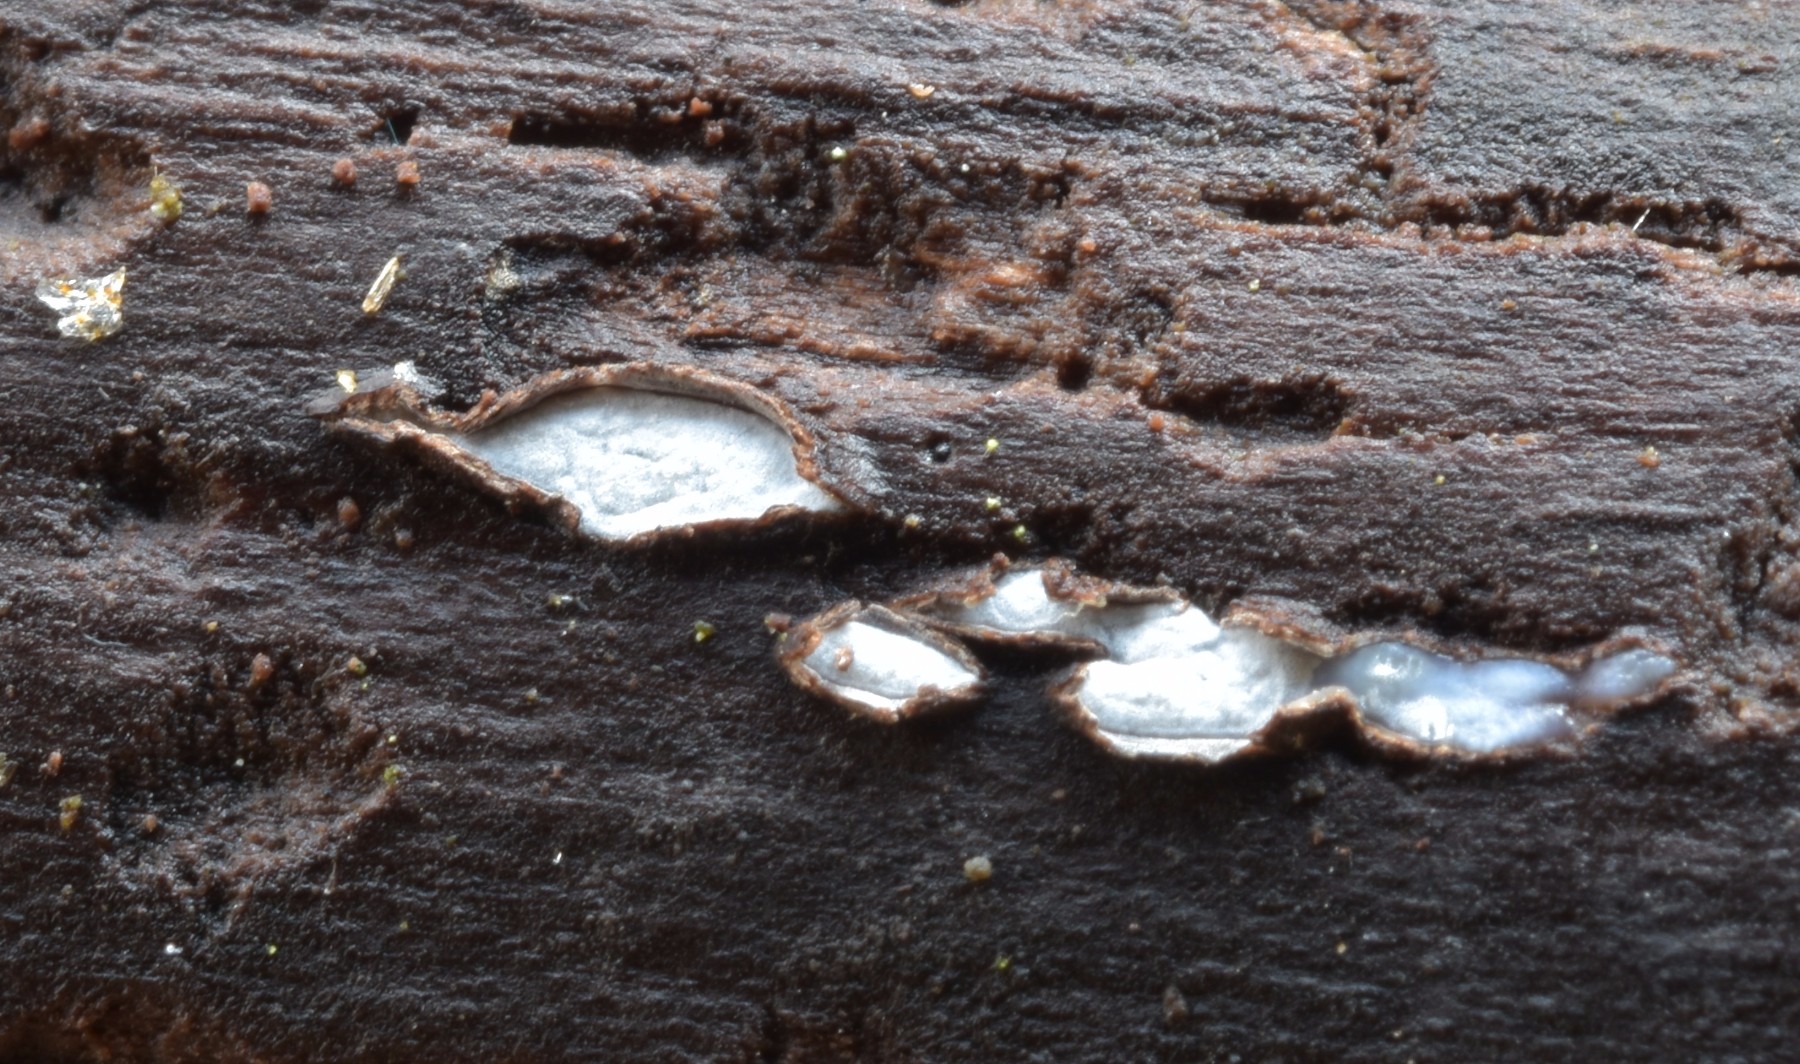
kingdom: Fungi
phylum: Ascomycota
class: Leotiomycetes
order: Chaetomellales
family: Marthamycetaceae
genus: Propolis
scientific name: Propolis farinosa
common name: almindelig vedsprængerskive
